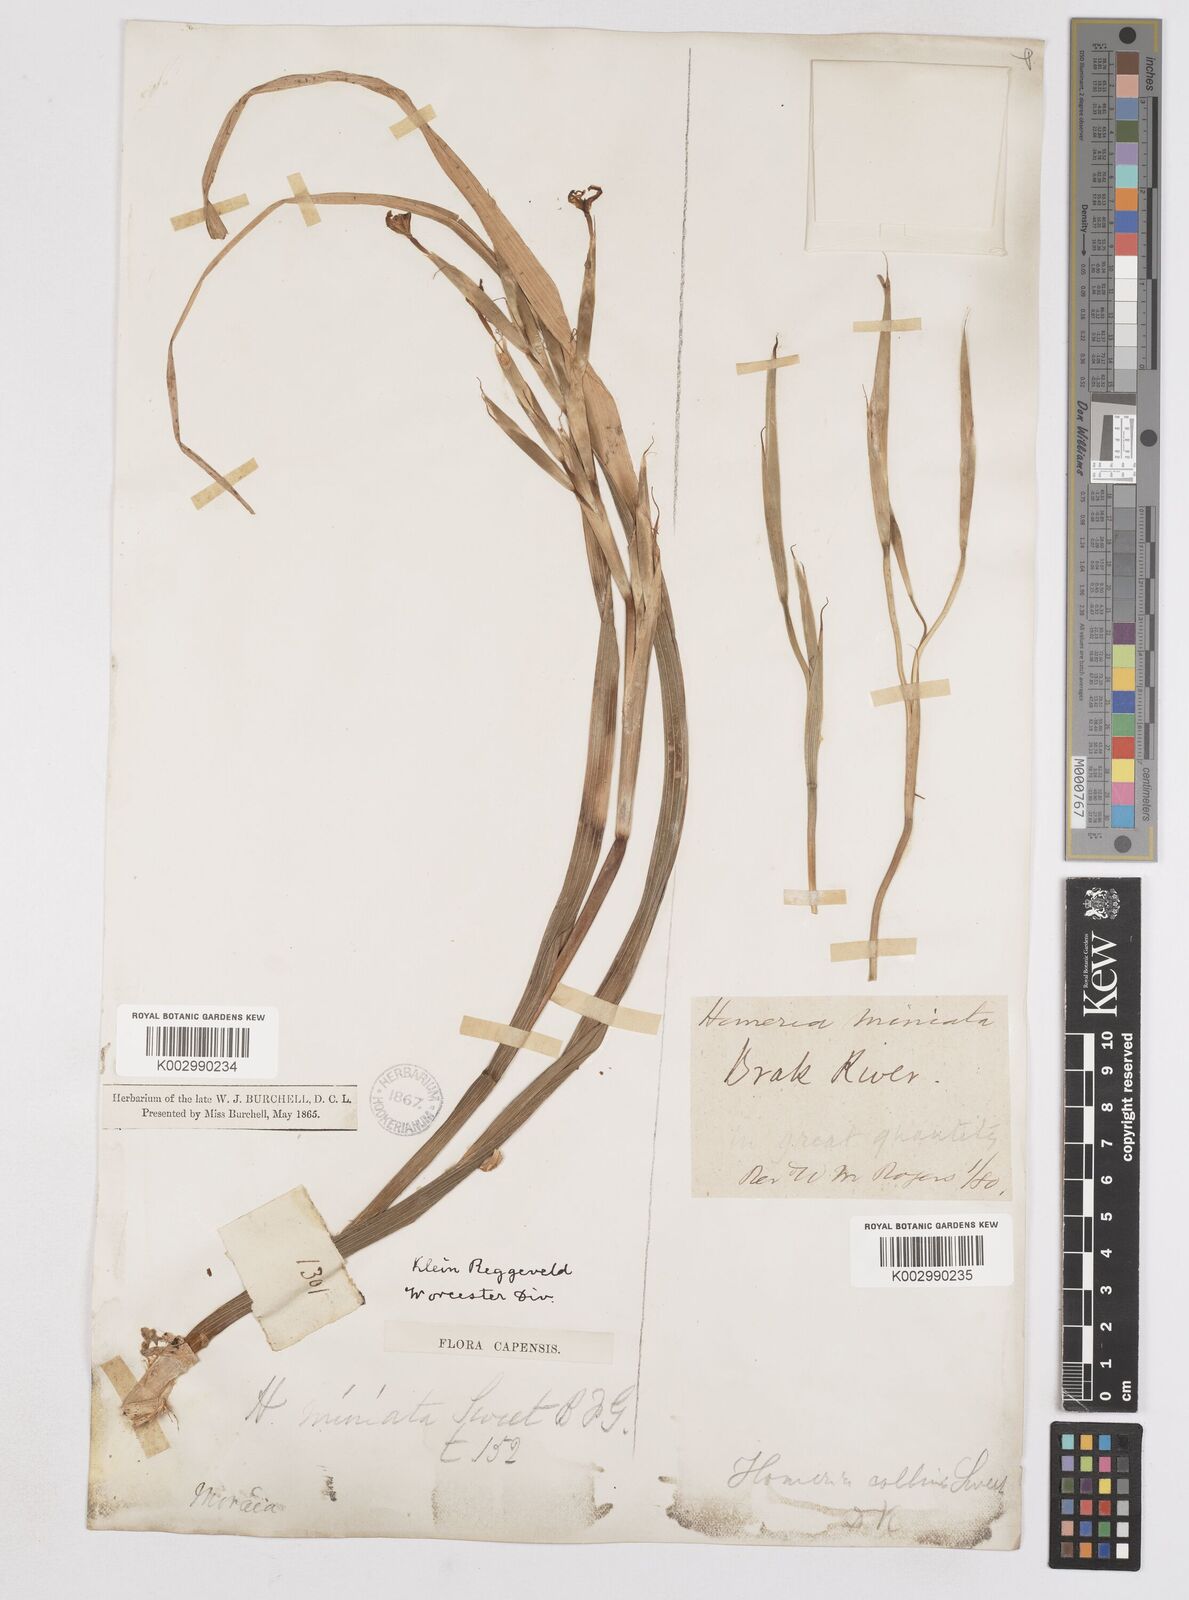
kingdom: Plantae
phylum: Tracheophyta
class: Liliopsida
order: Asparagales
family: Iridaceae
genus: Moraea
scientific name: Moraea miniata
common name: Two-leaf cape-tulip
